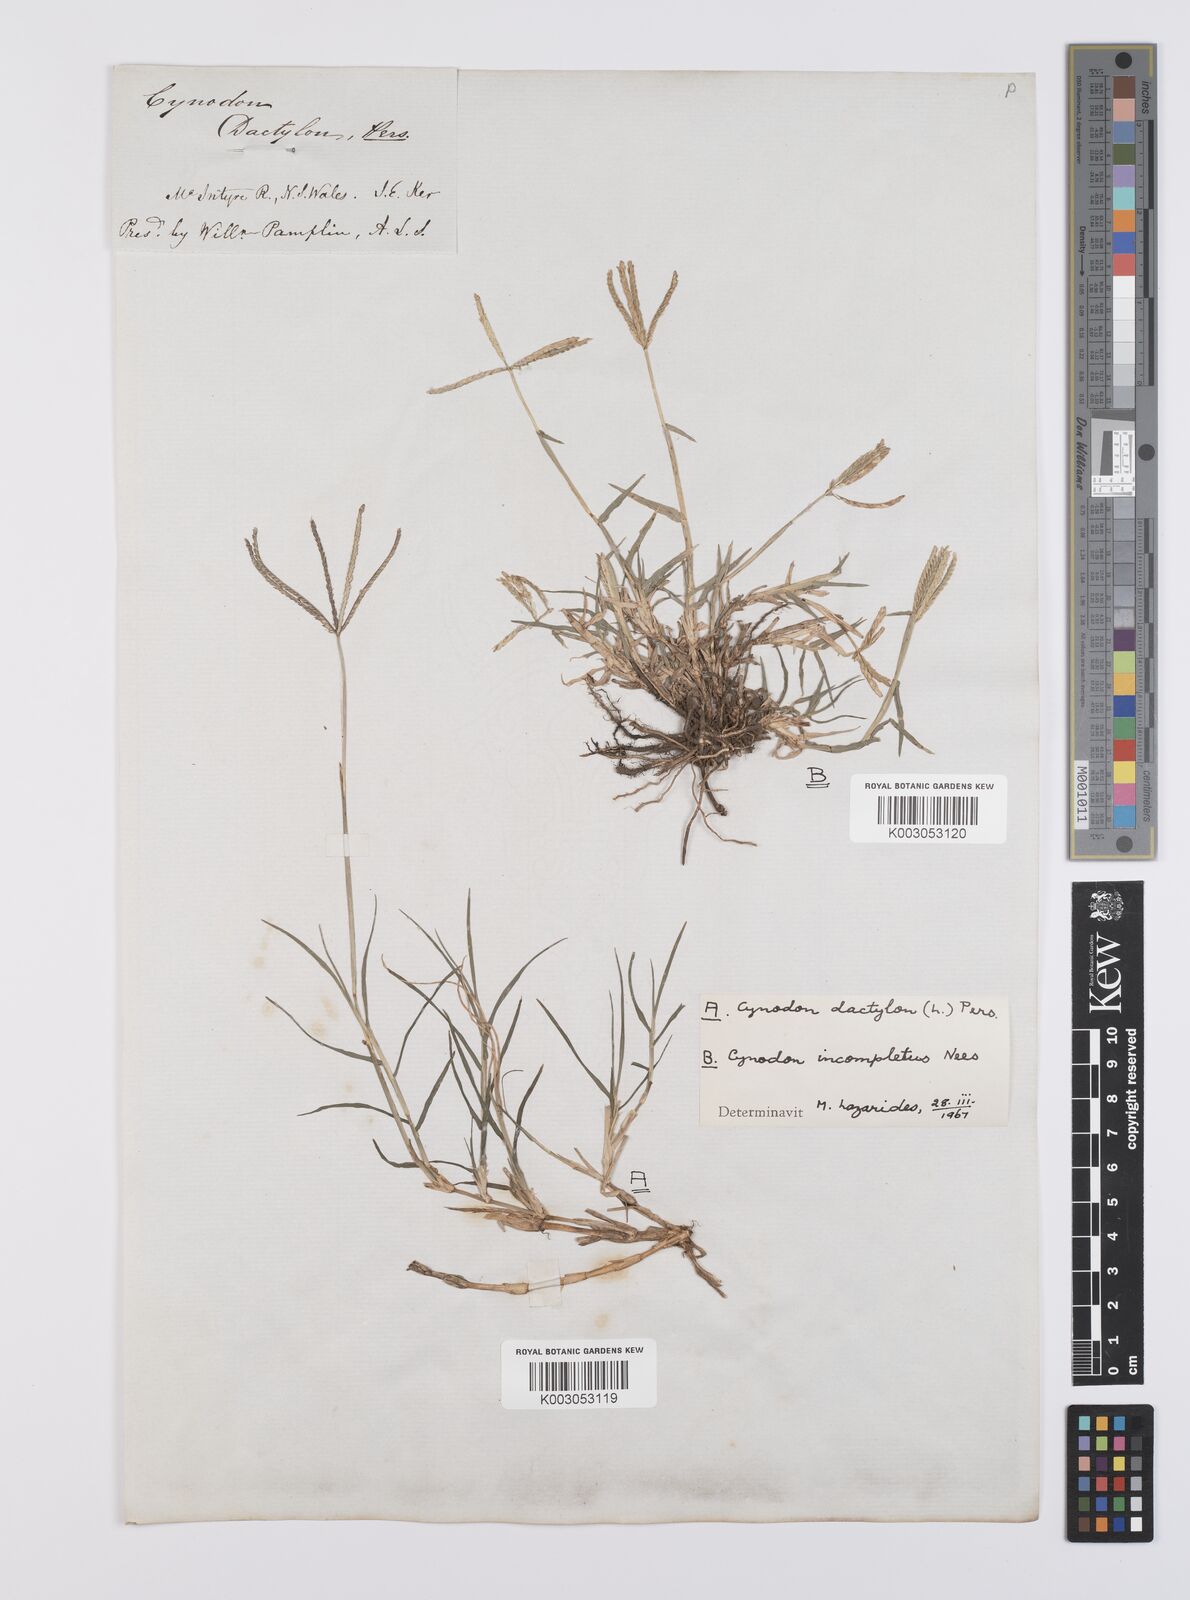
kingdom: Plantae
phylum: Tracheophyta
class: Liliopsida
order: Poales
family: Poaceae
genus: Cynodon
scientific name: Cynodon incompletus
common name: African bermuda-grass
